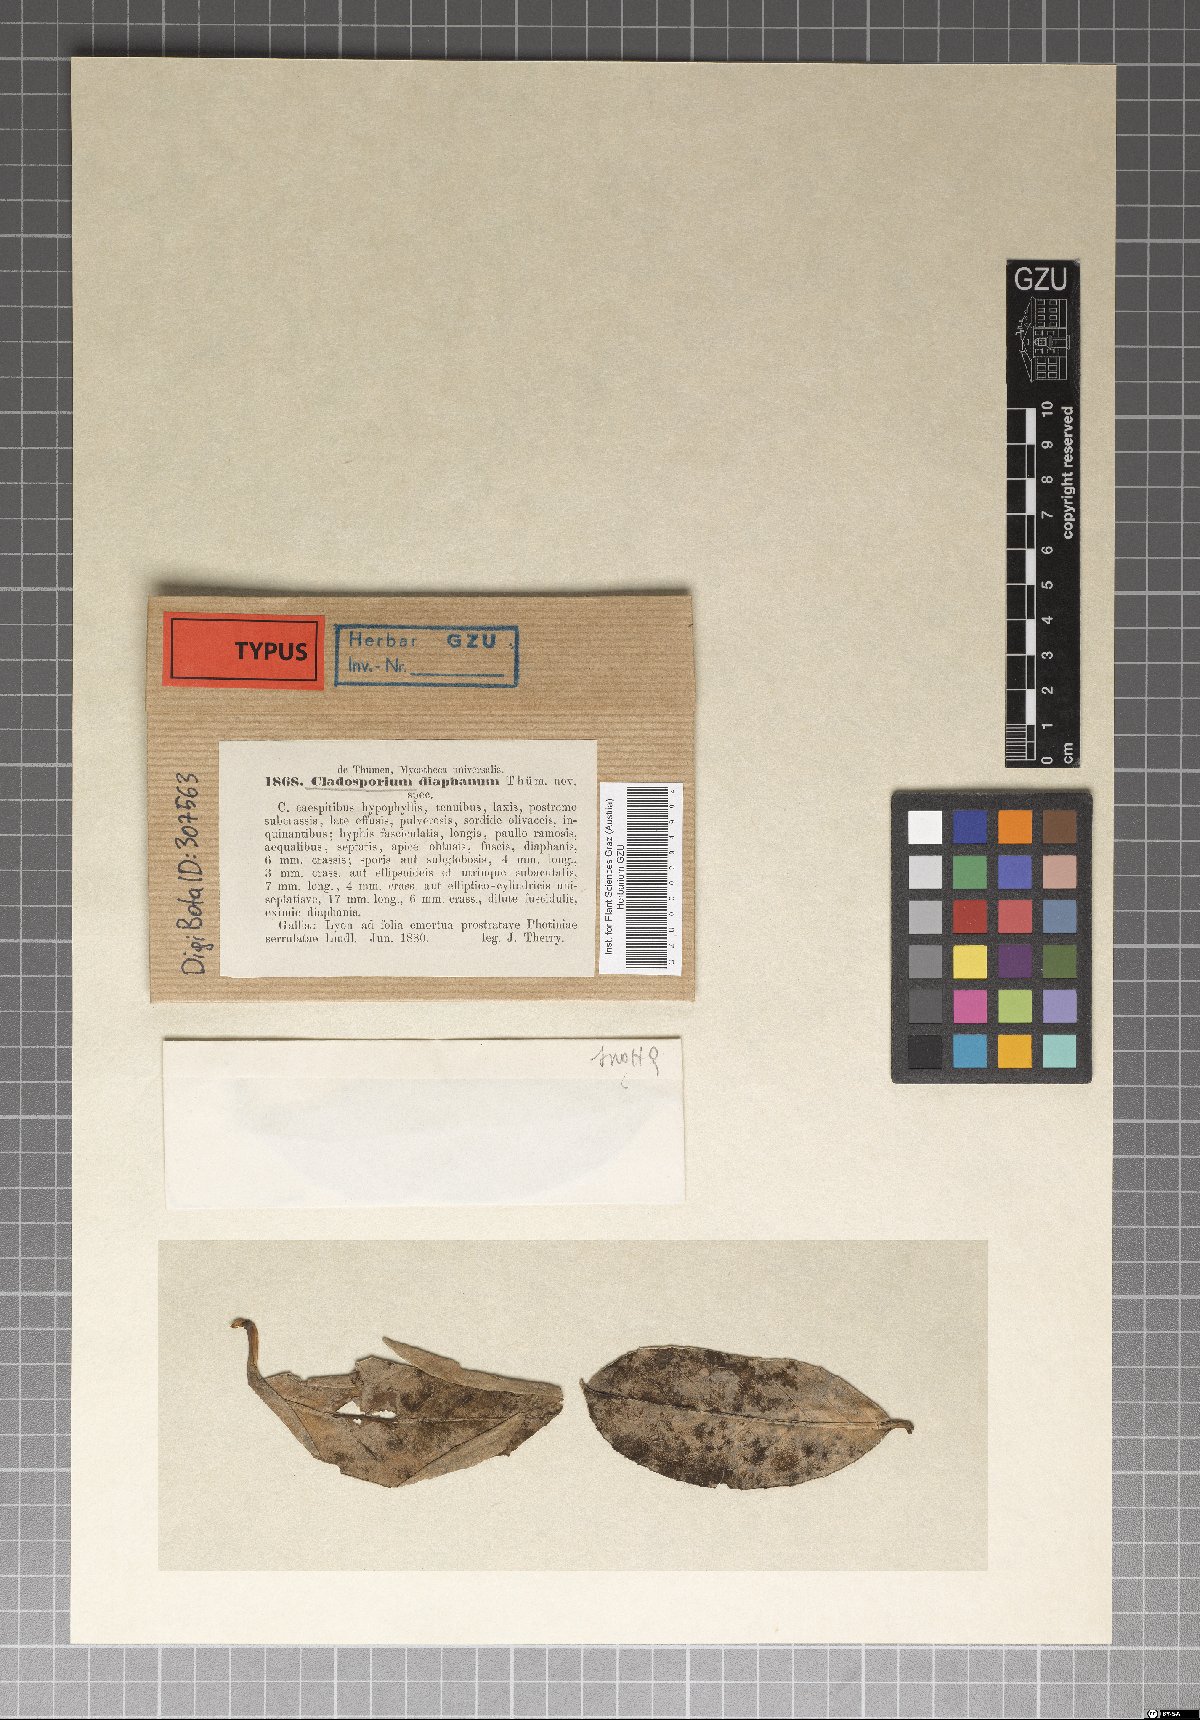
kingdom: Fungi
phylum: Ascomycota
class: Dothideomycetes
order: Capnodiales
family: Cladosporiaceae
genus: Cladosporium
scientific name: Cladosporium diaphanum
